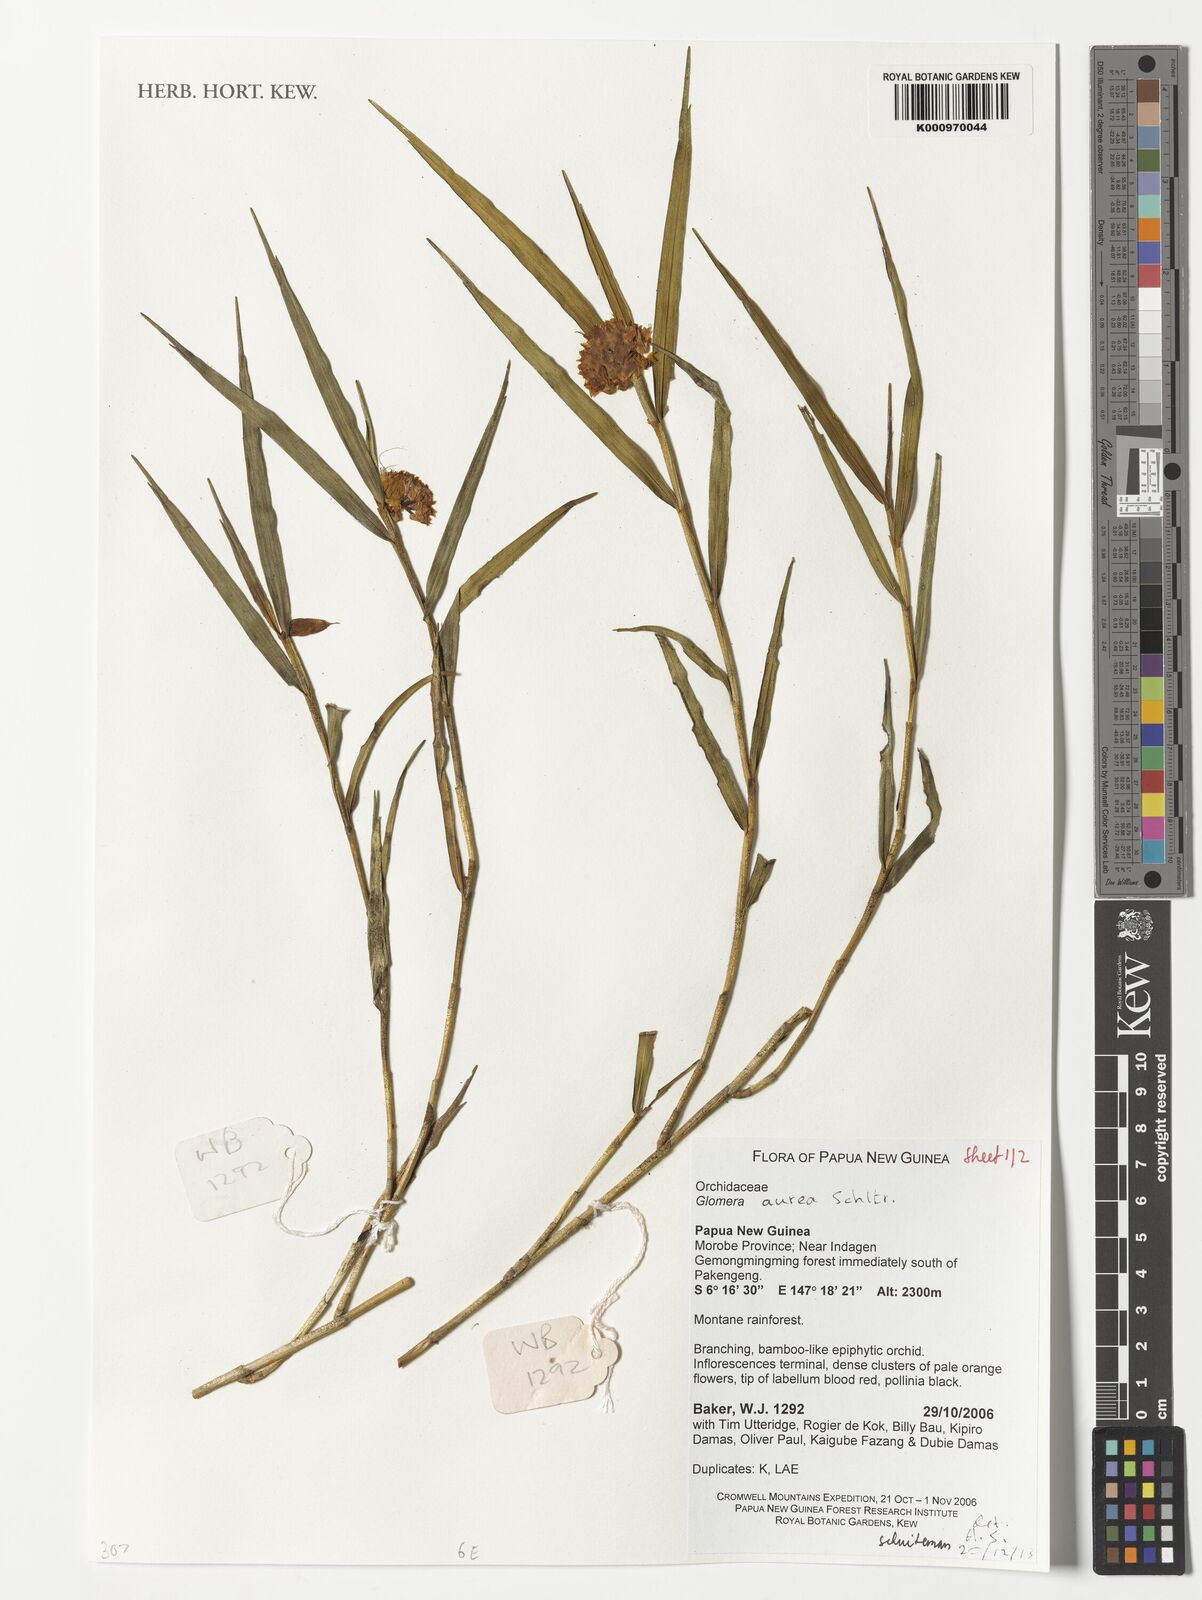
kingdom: Plantae
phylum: Tracheophyta
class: Liliopsida
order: Asparagales
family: Orchidaceae
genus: Glomera
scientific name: Glomera aurea
